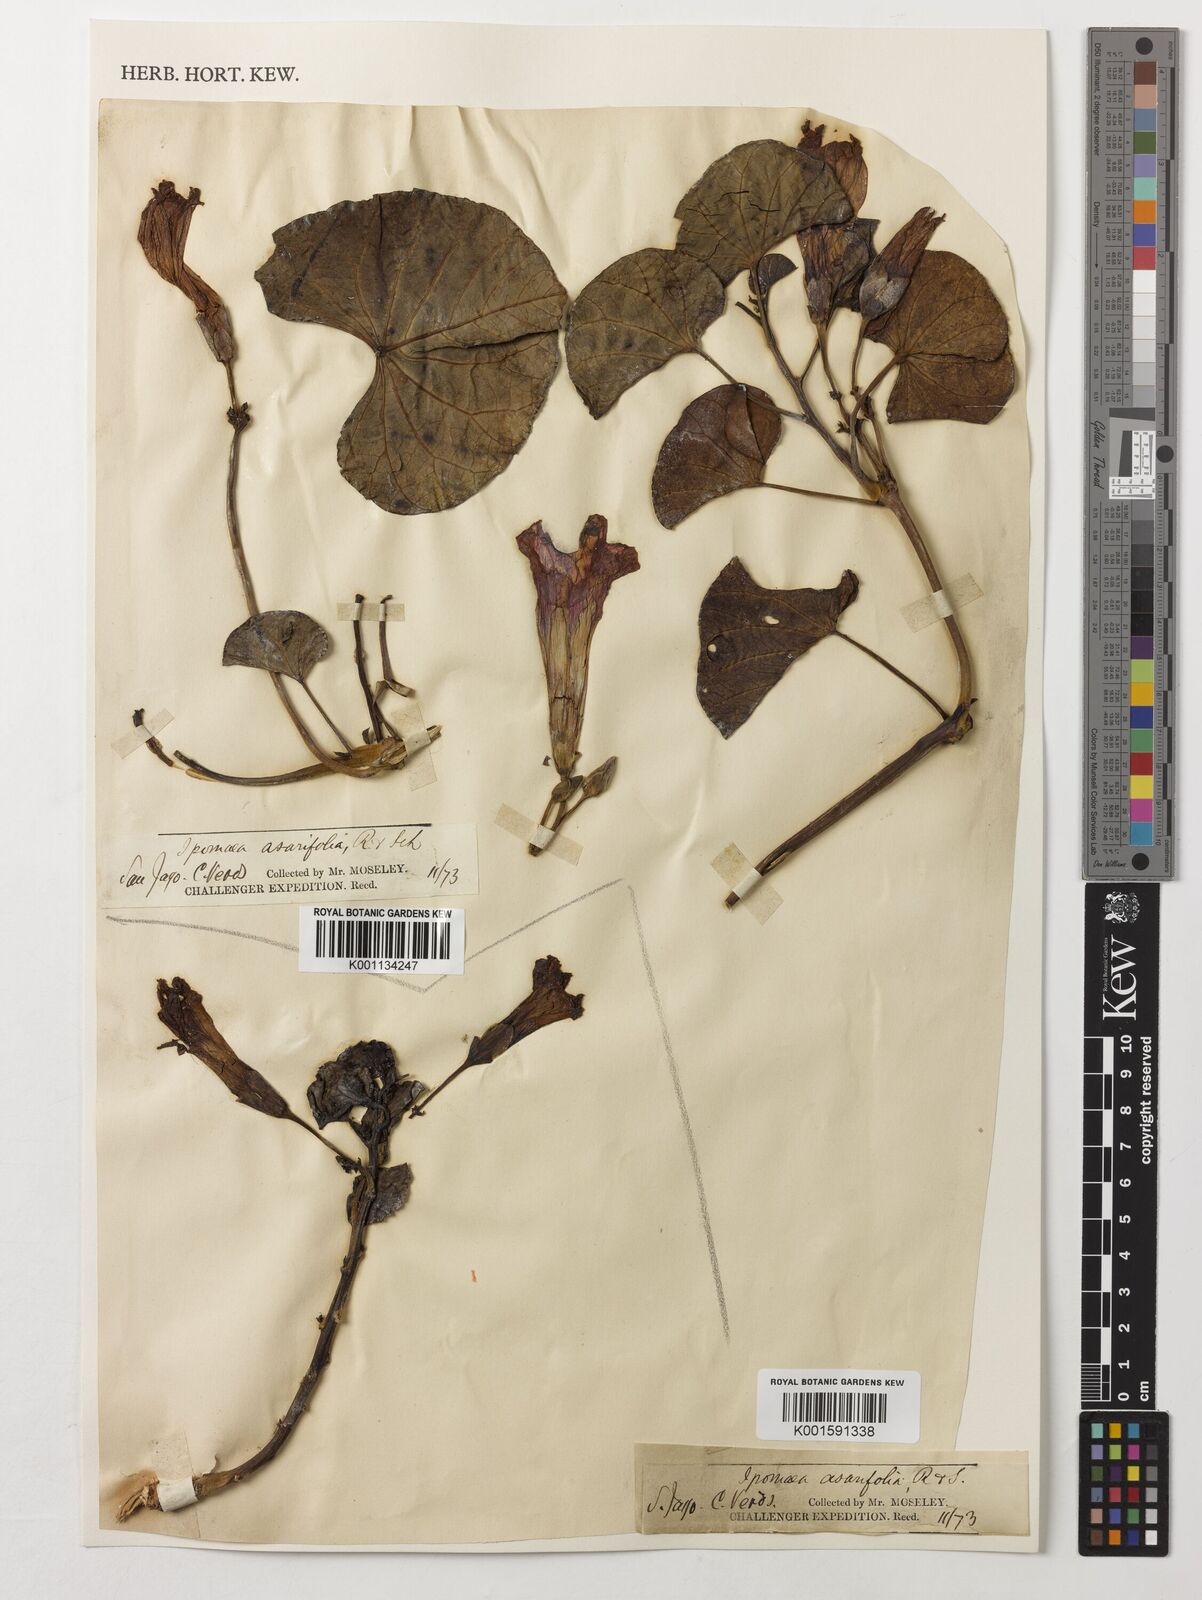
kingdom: Plantae
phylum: Tracheophyta
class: Magnoliopsida
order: Solanales
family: Convolvulaceae
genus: Ipomoea
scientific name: Ipomoea asarifolia
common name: Ginger-leaf morning-glory
